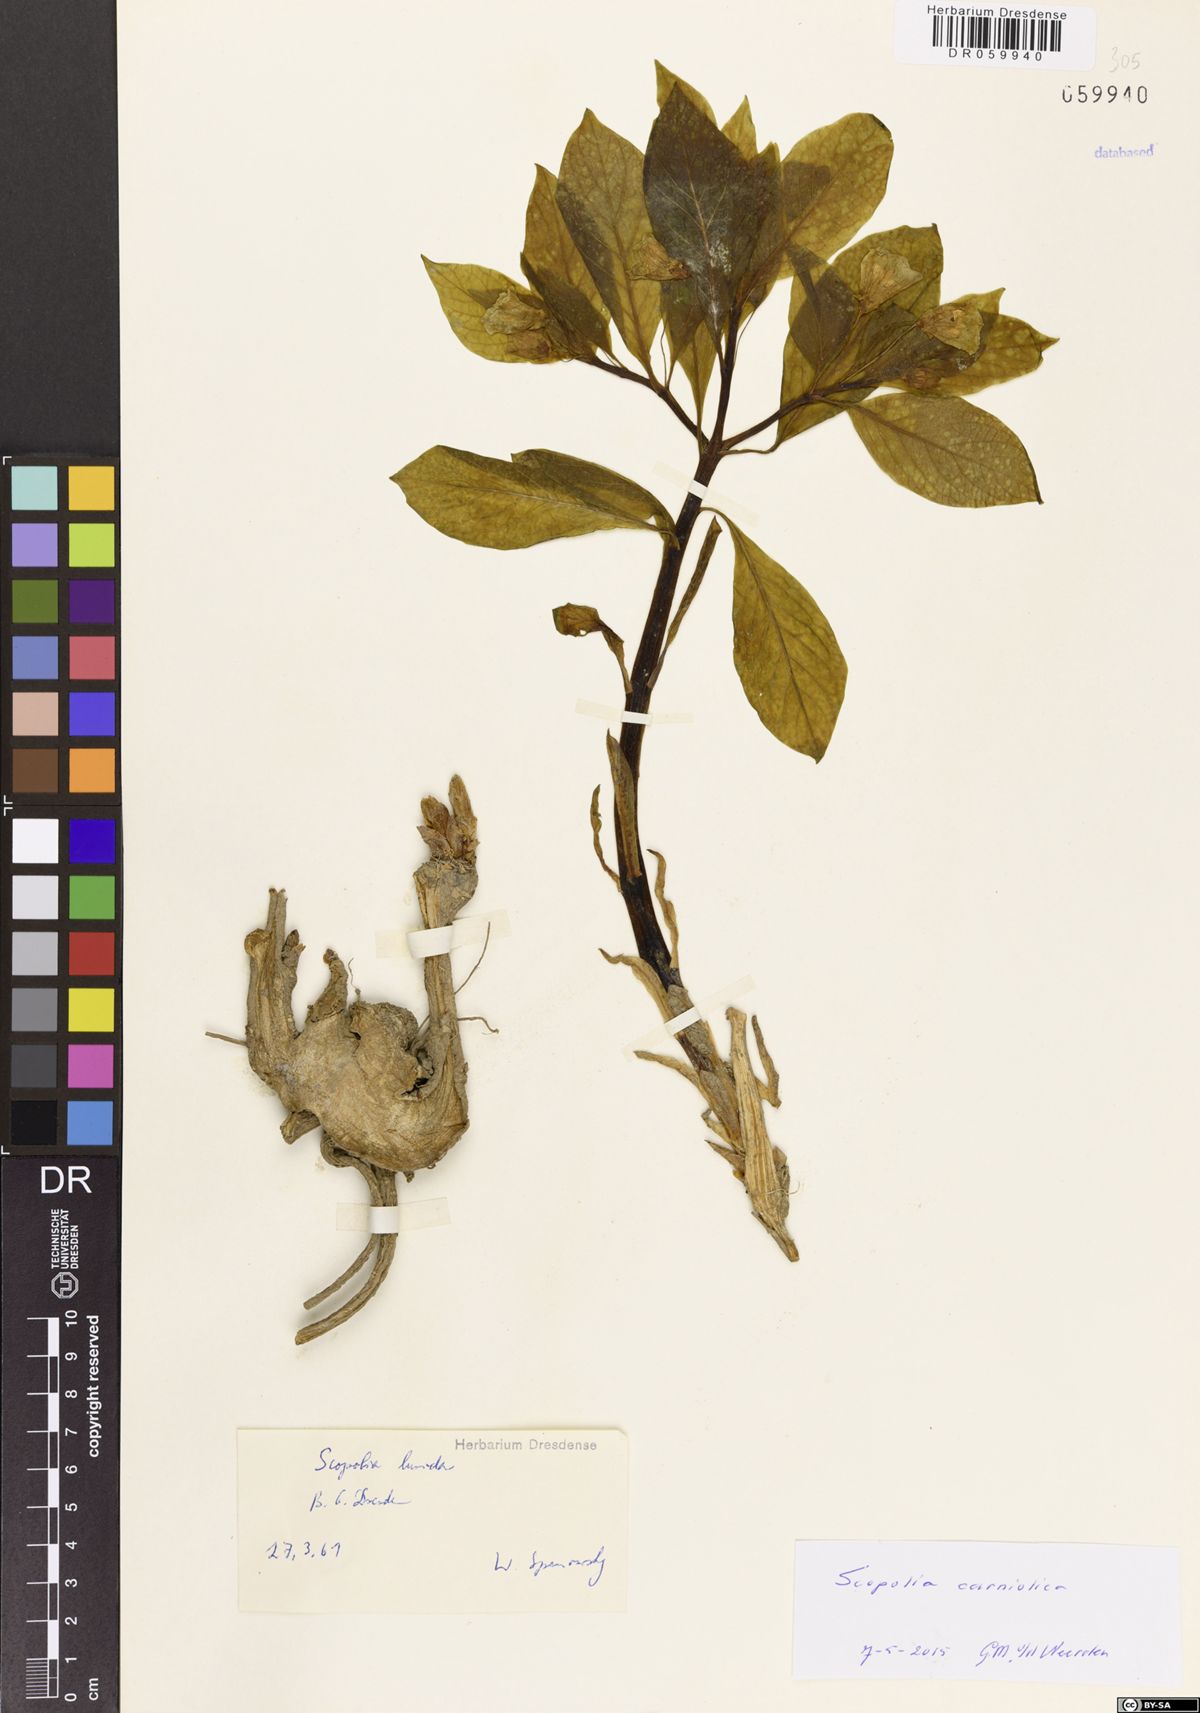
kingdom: Plantae
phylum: Tracheophyta
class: Magnoliopsida
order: Solanales
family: Solanaceae
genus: Scopolia
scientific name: Scopolia carniolica
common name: Scopolia
